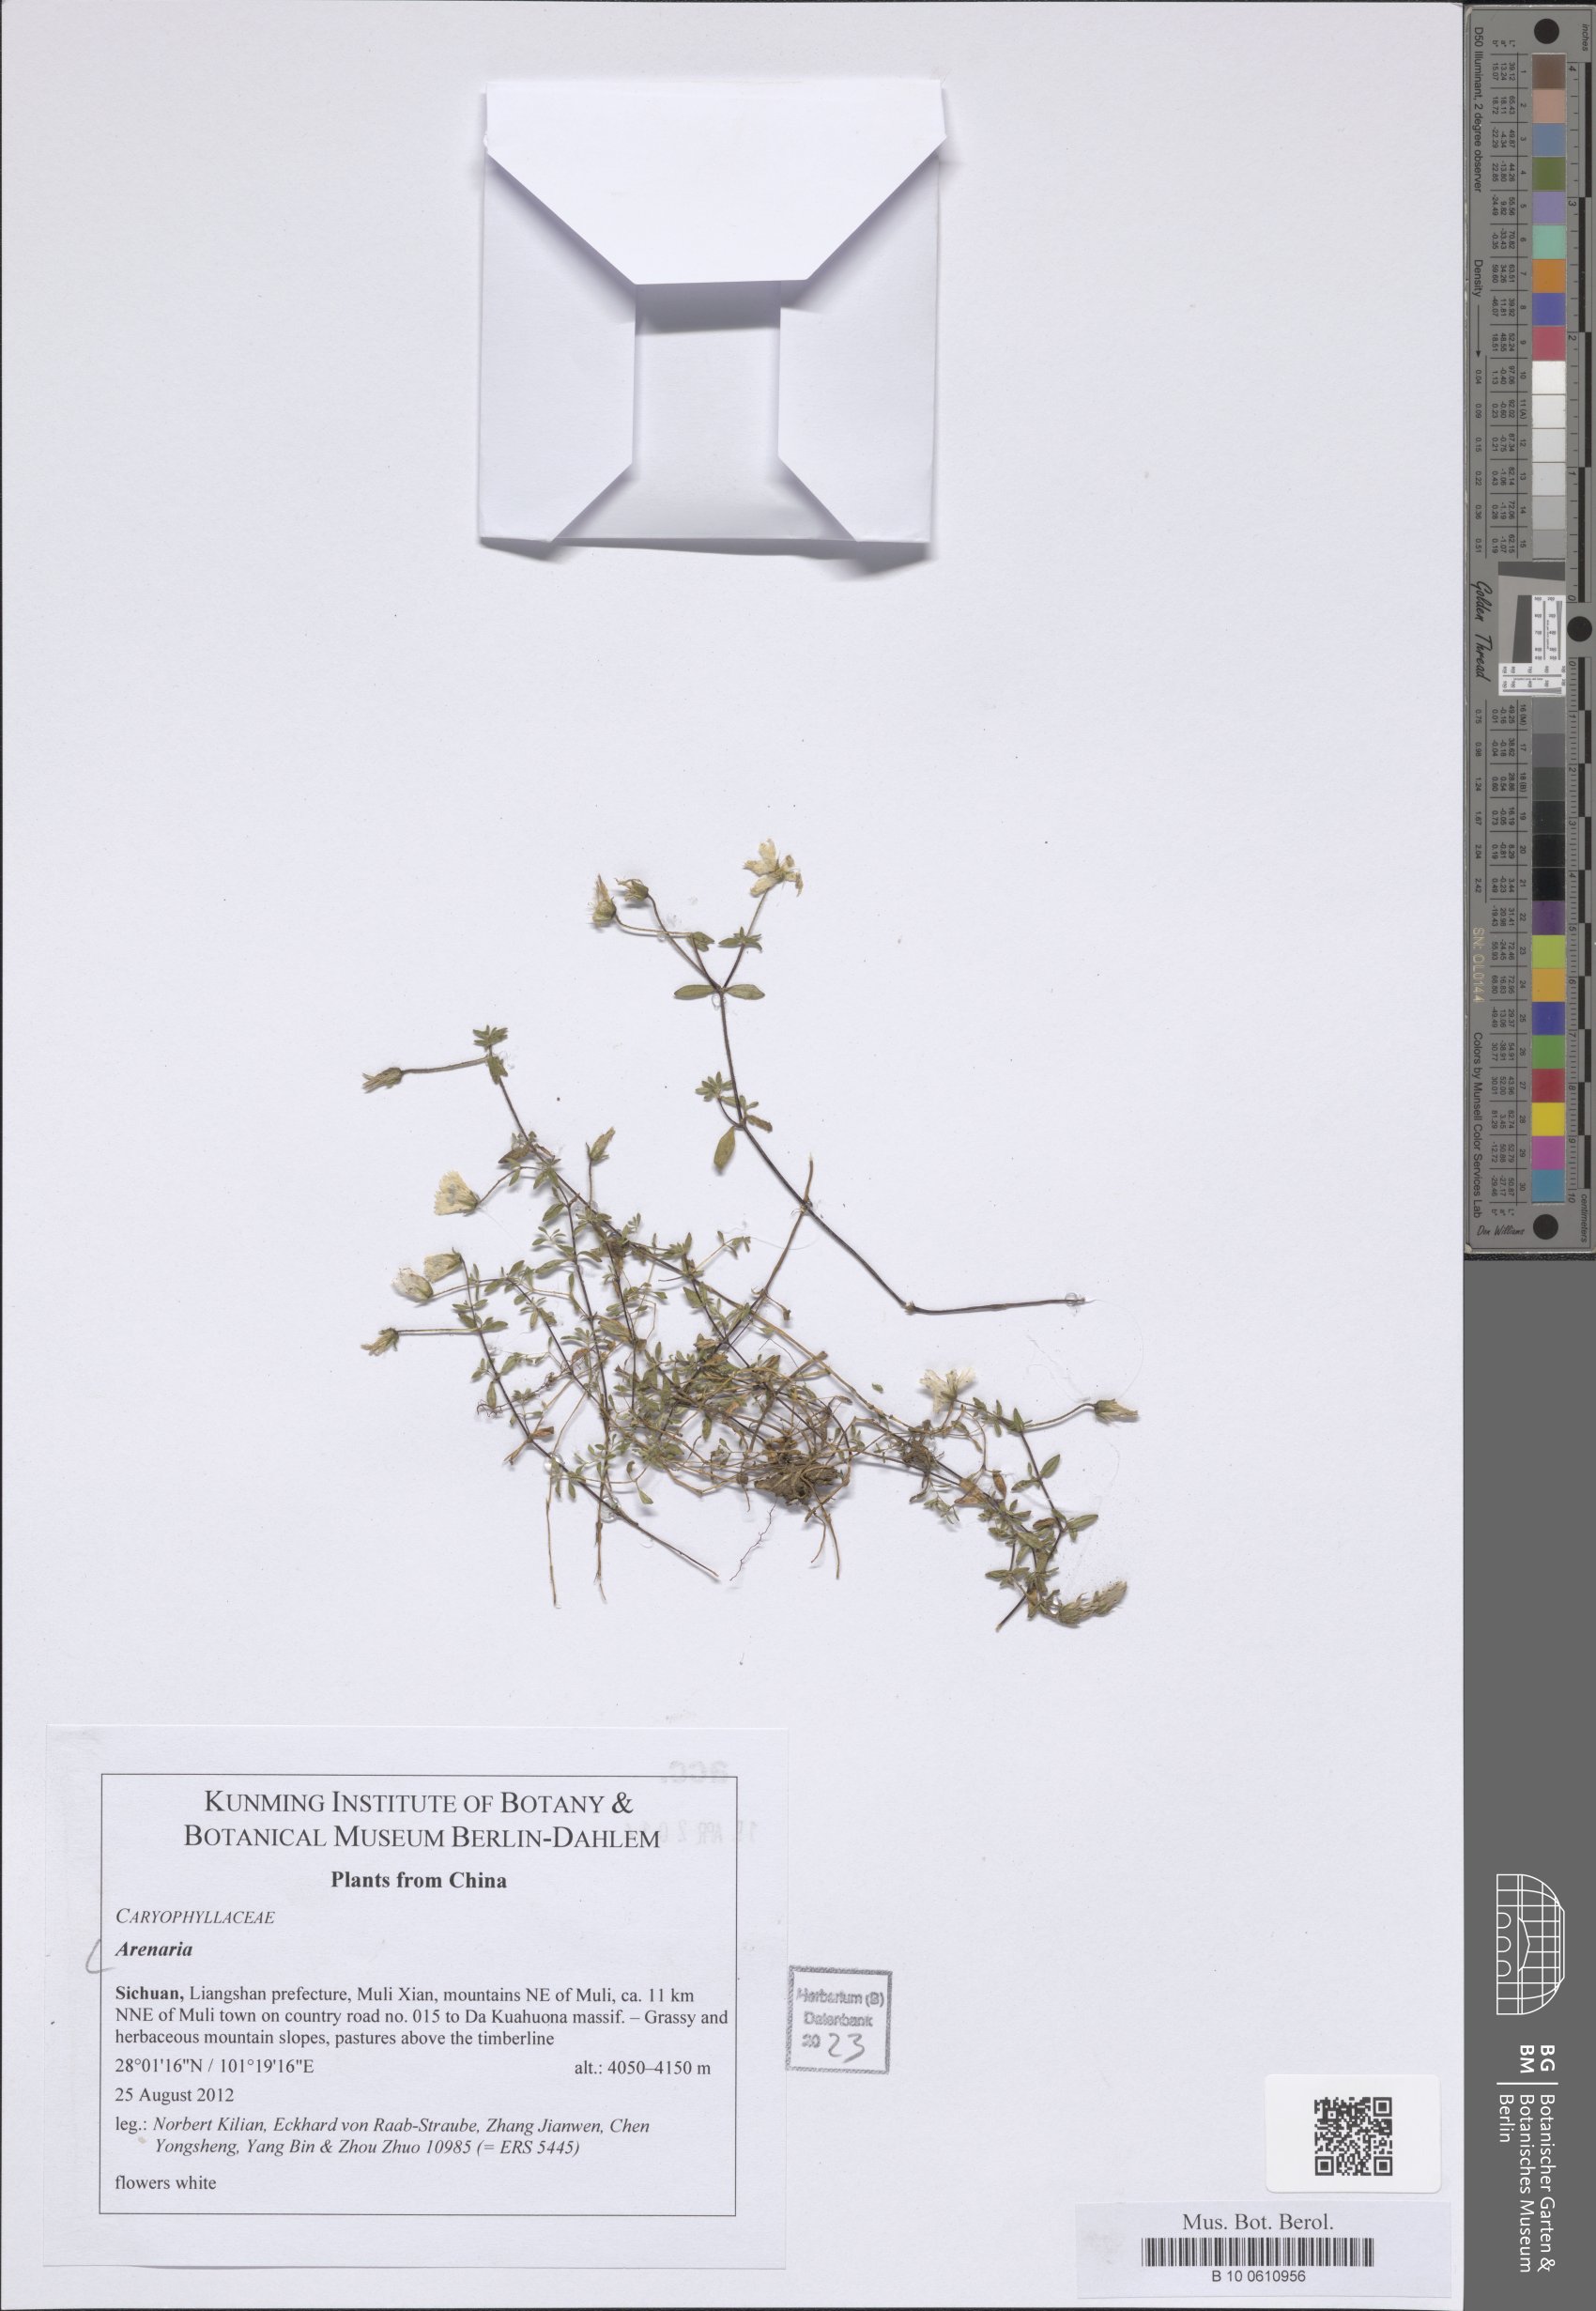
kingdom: Plantae
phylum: Tracheophyta
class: Magnoliopsida
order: Caryophyllales
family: Caryophyllaceae
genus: Arenaria
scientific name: Arenaria
